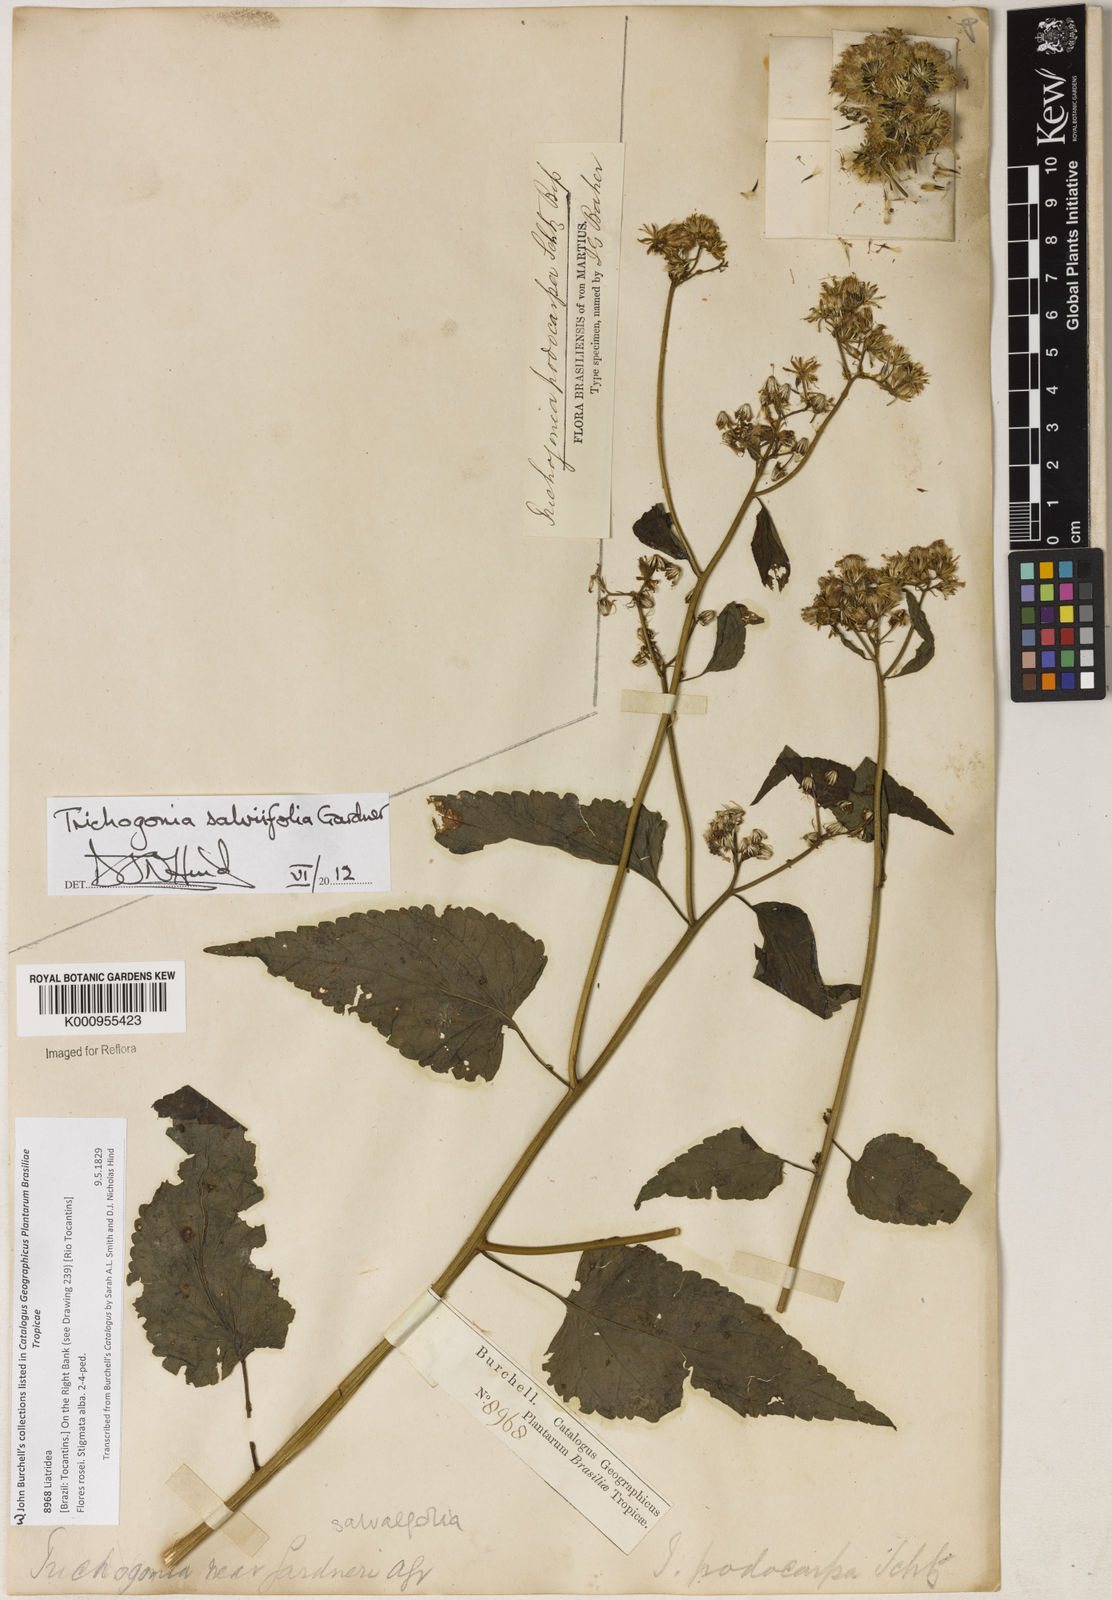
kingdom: Plantae
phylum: Tracheophyta
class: Magnoliopsida
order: Asterales
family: Asteraceae
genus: Trichogonia
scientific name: Trichogonia salviifolia
